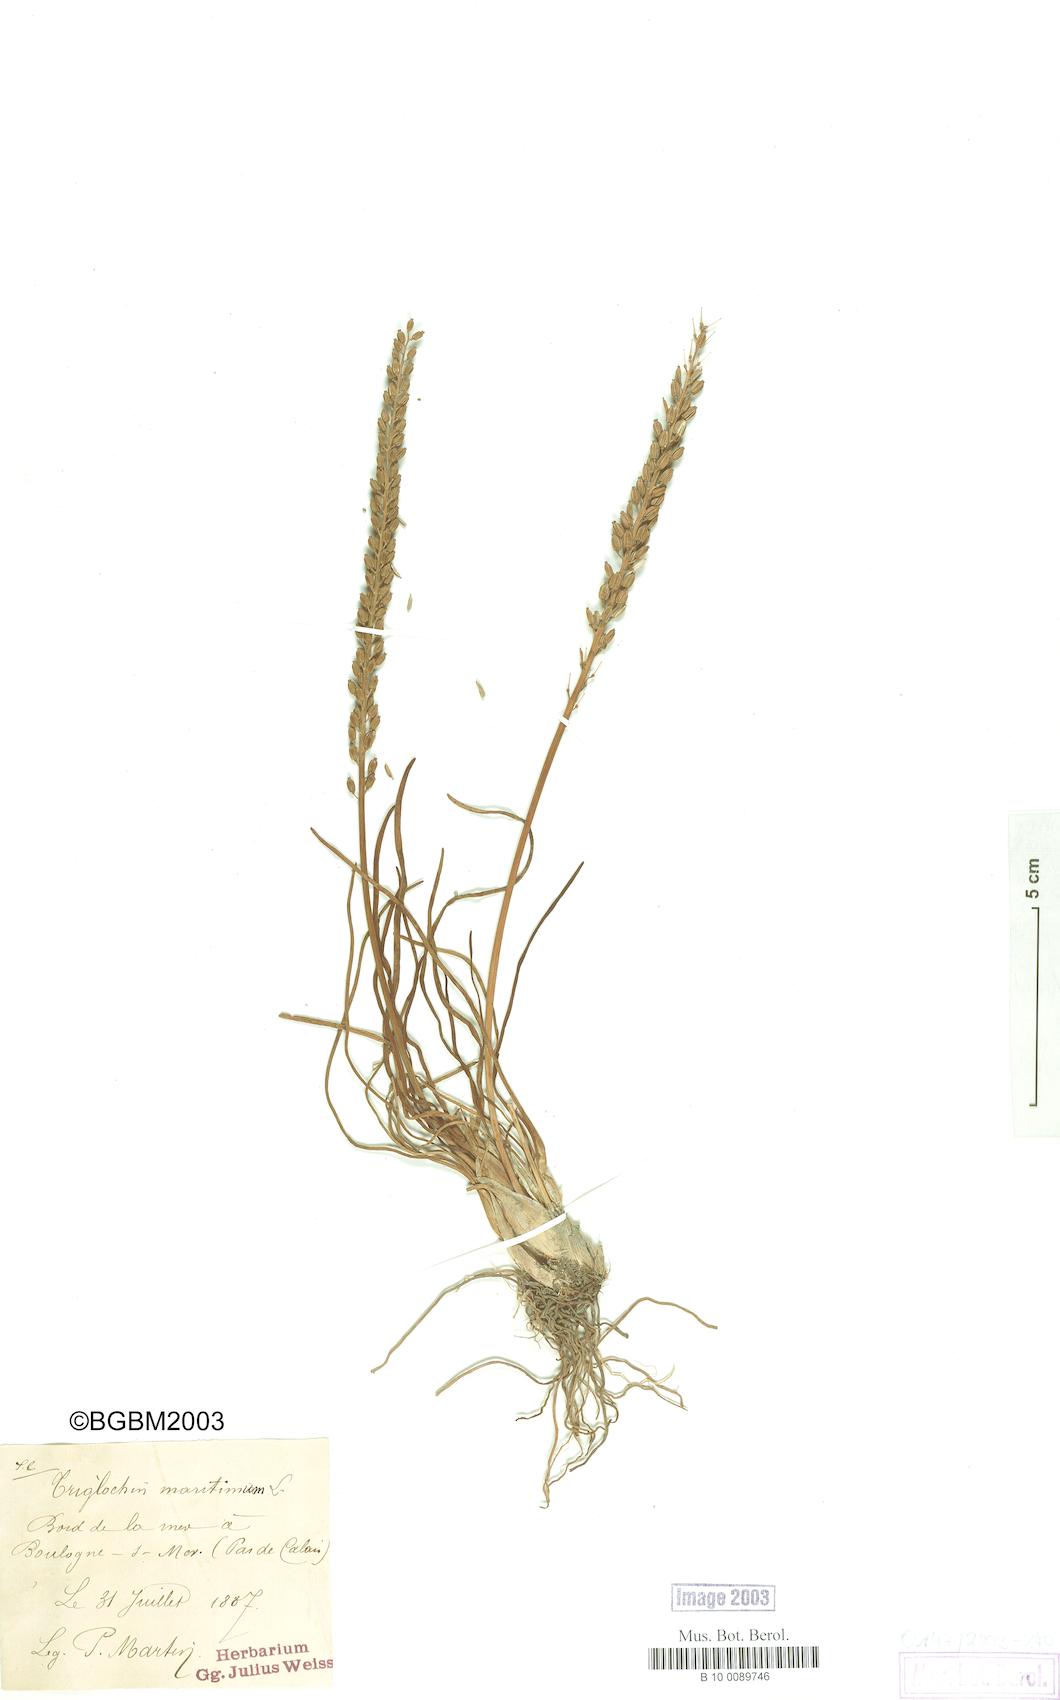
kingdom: Plantae
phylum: Tracheophyta
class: Liliopsida
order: Alismatales
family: Juncaginaceae
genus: Triglochin
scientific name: Triglochin maritima
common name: Sea arrowgrass
